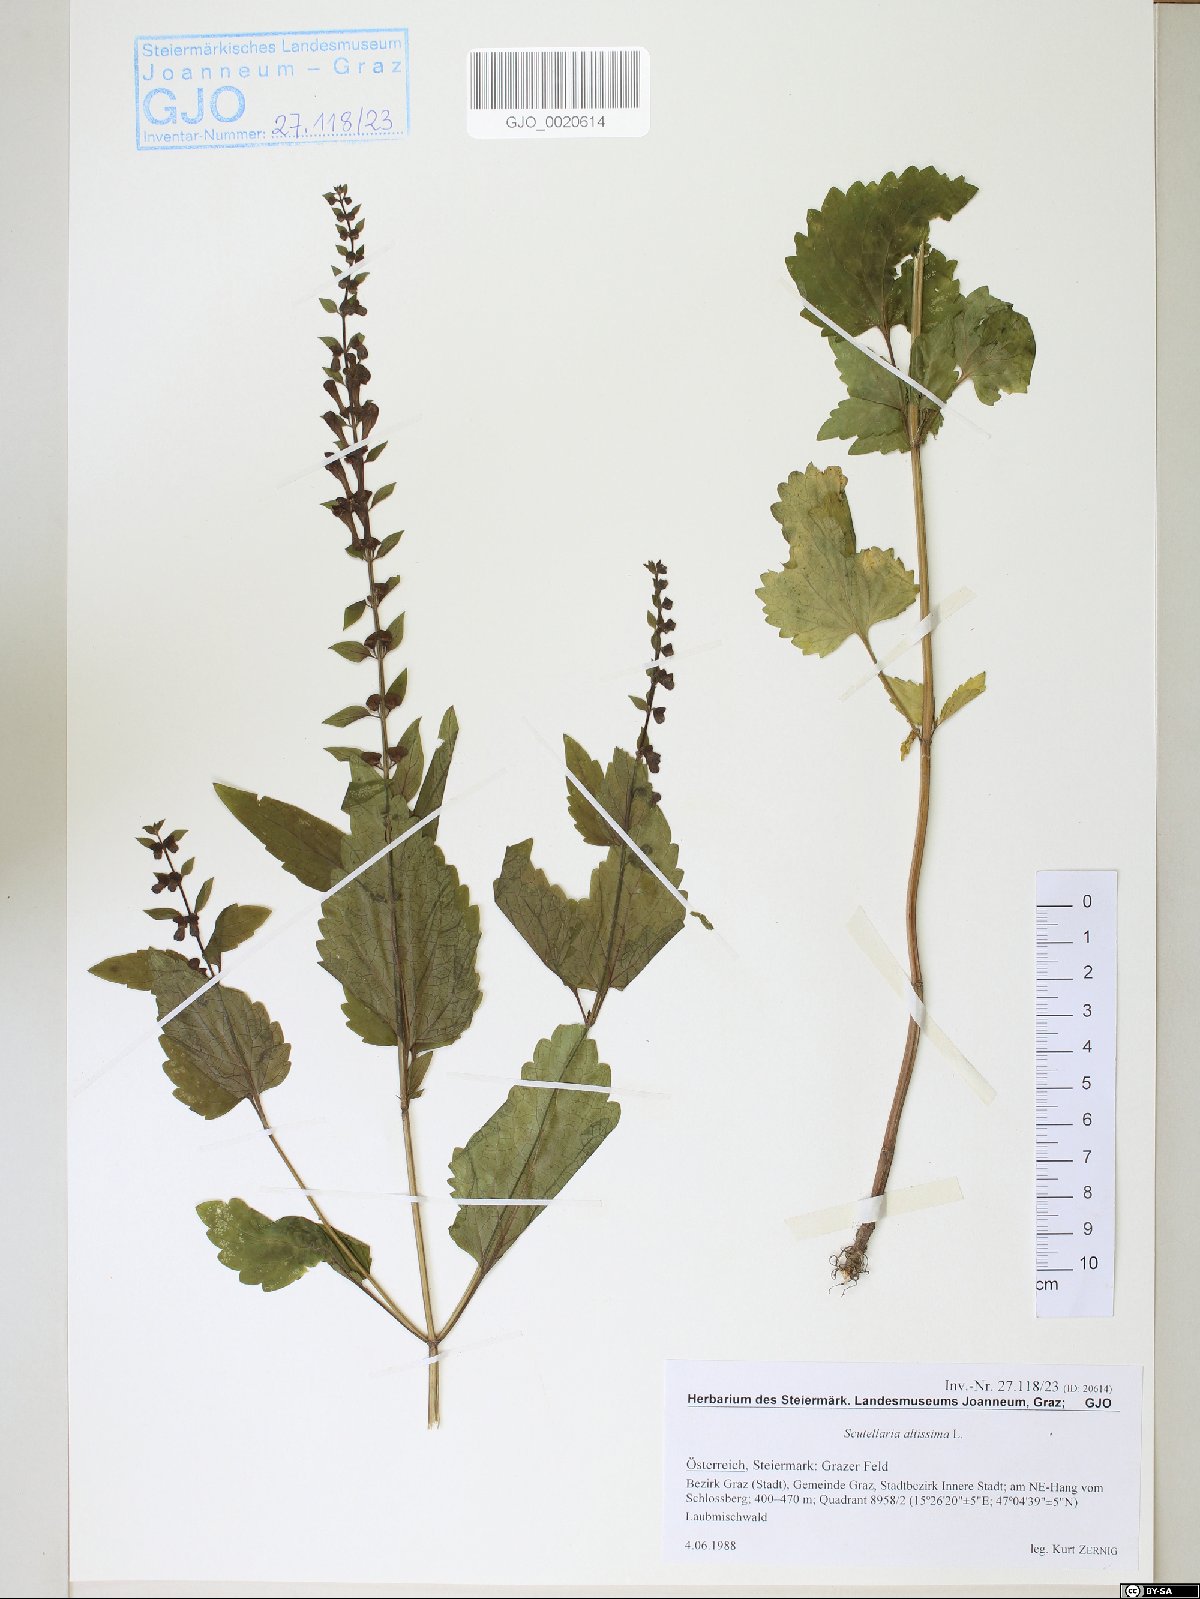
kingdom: Plantae
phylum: Tracheophyta
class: Magnoliopsida
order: Lamiales
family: Lamiaceae
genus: Scutellaria
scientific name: Scutellaria altissima
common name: Somerset skullcap
